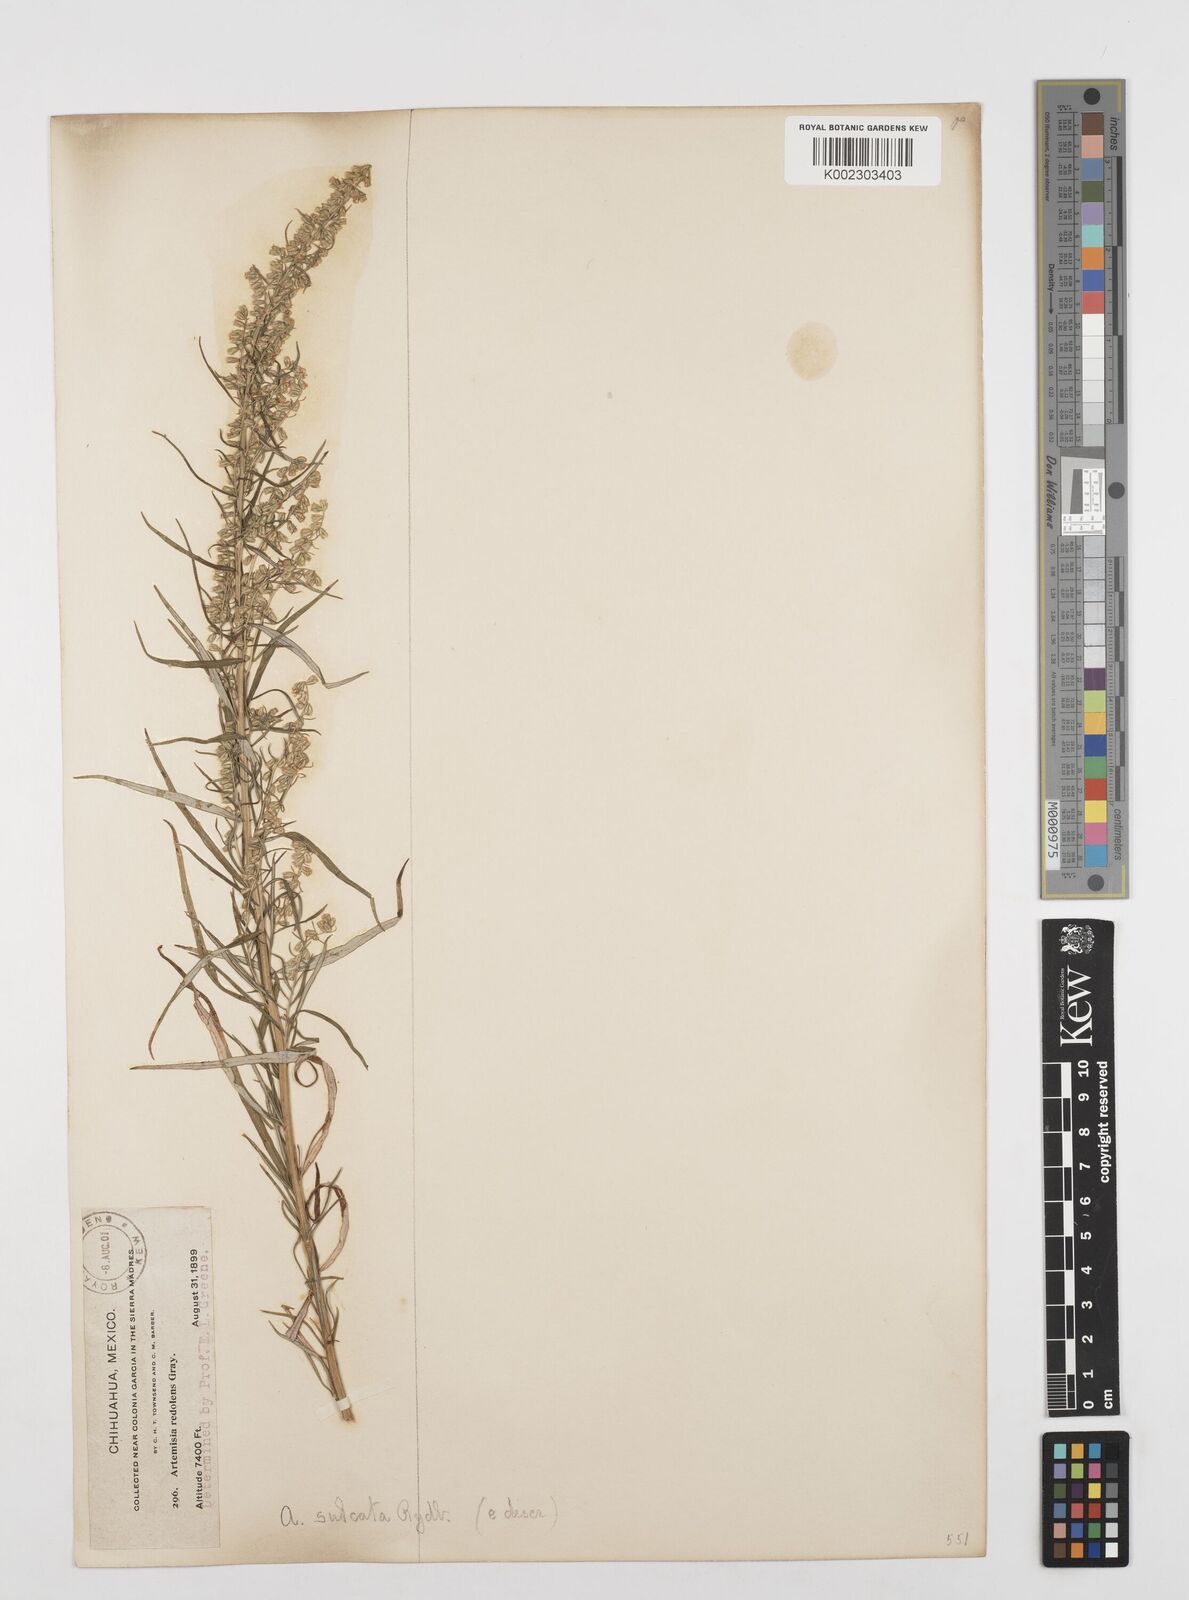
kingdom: Plantae
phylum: Tracheophyta
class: Magnoliopsida
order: Asterales
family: Asteraceae
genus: Artemisia
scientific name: Artemisia ludoviciana
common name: Western mugwort
